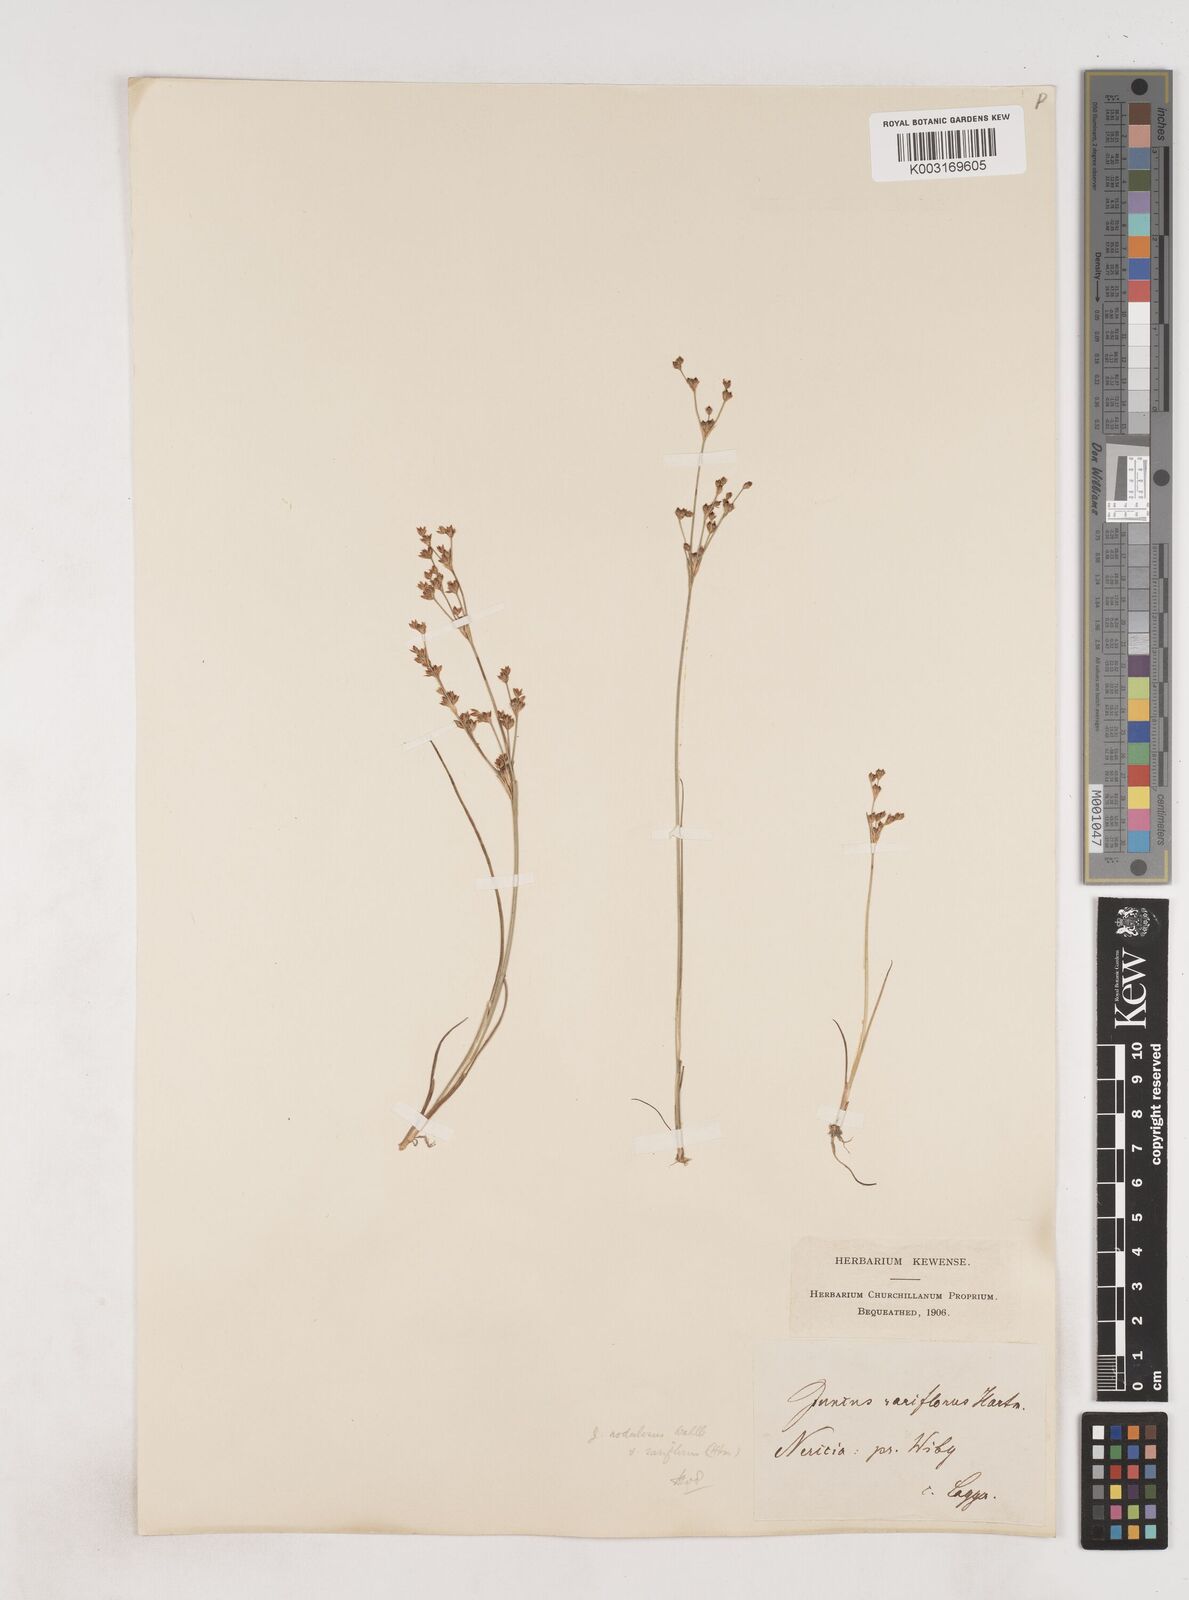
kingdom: Plantae
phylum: Tracheophyta
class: Liliopsida
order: Poales
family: Juncaceae
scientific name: Juncaceae
